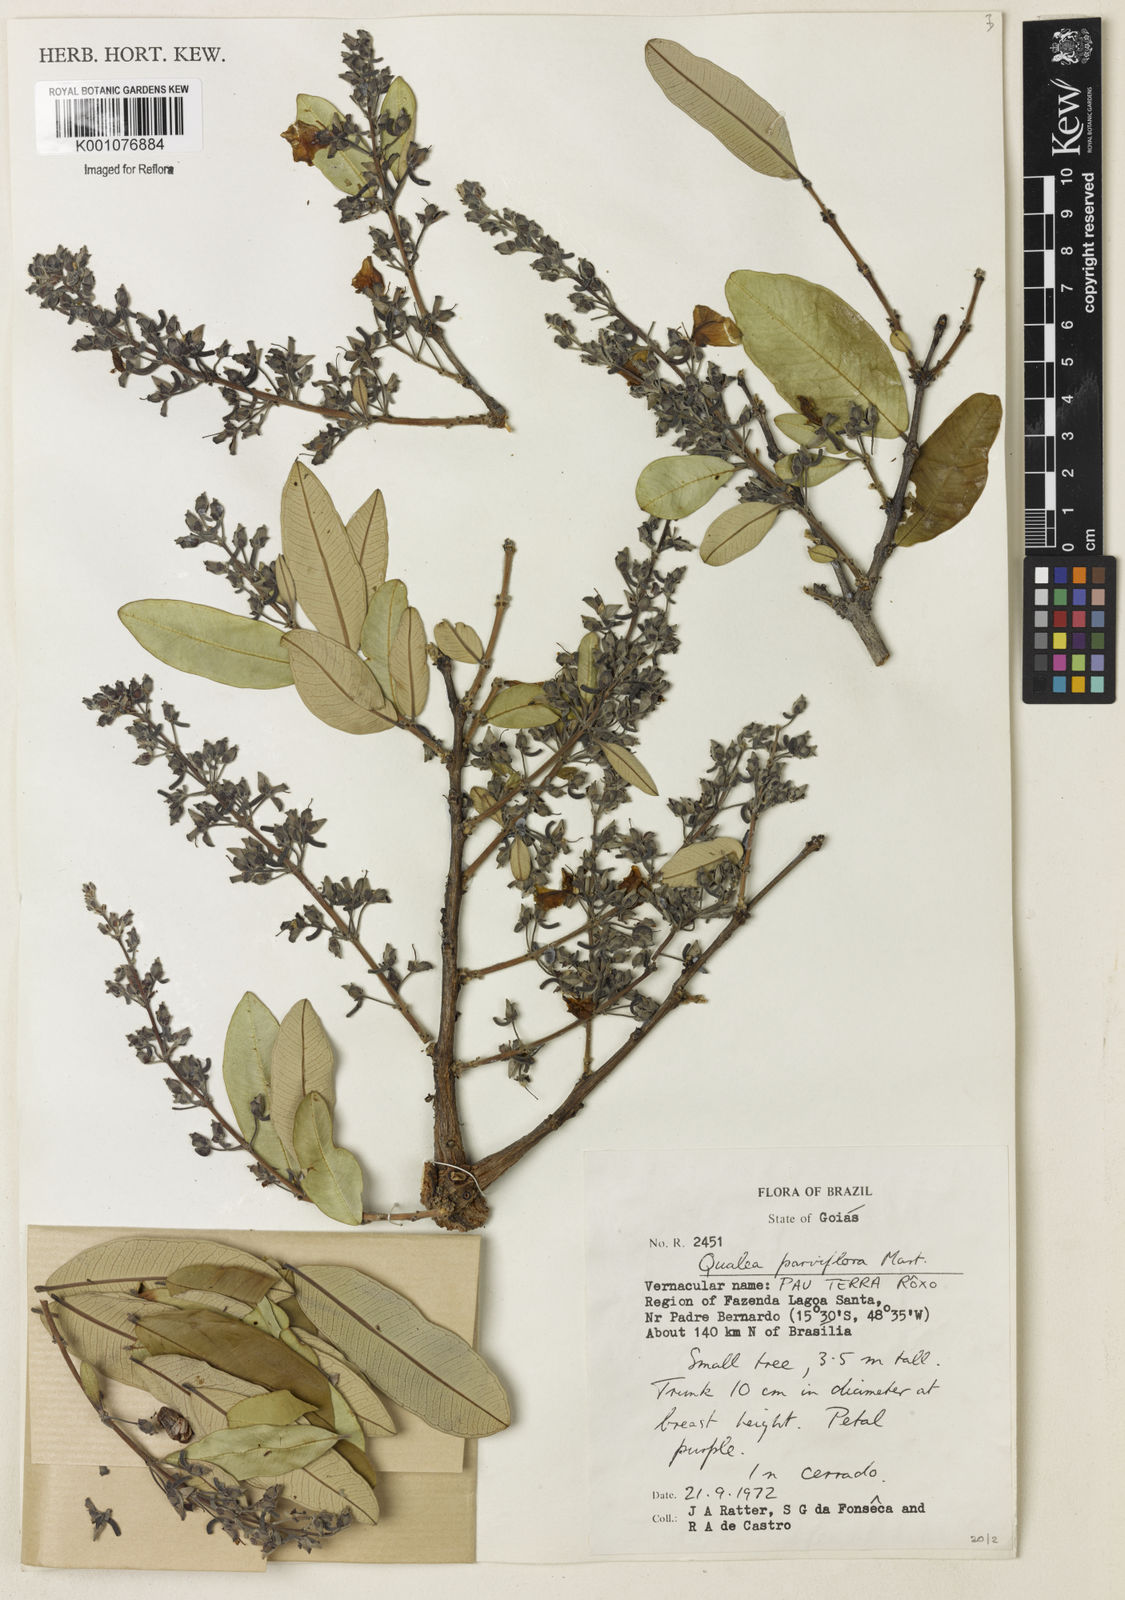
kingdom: Plantae
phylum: Tracheophyta
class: Magnoliopsida
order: Myrtales
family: Vochysiaceae
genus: Qualea
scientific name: Qualea parviflora
